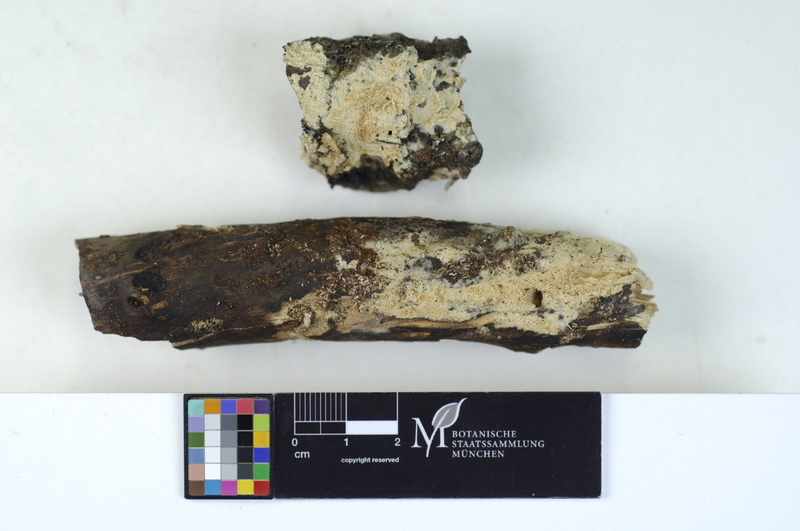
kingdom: Fungi
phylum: Basidiomycota
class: Agaricomycetes
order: Hymenochaetales
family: Schizoporaceae
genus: Schizopora
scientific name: Schizopora paradoxa
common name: Split porecrust
